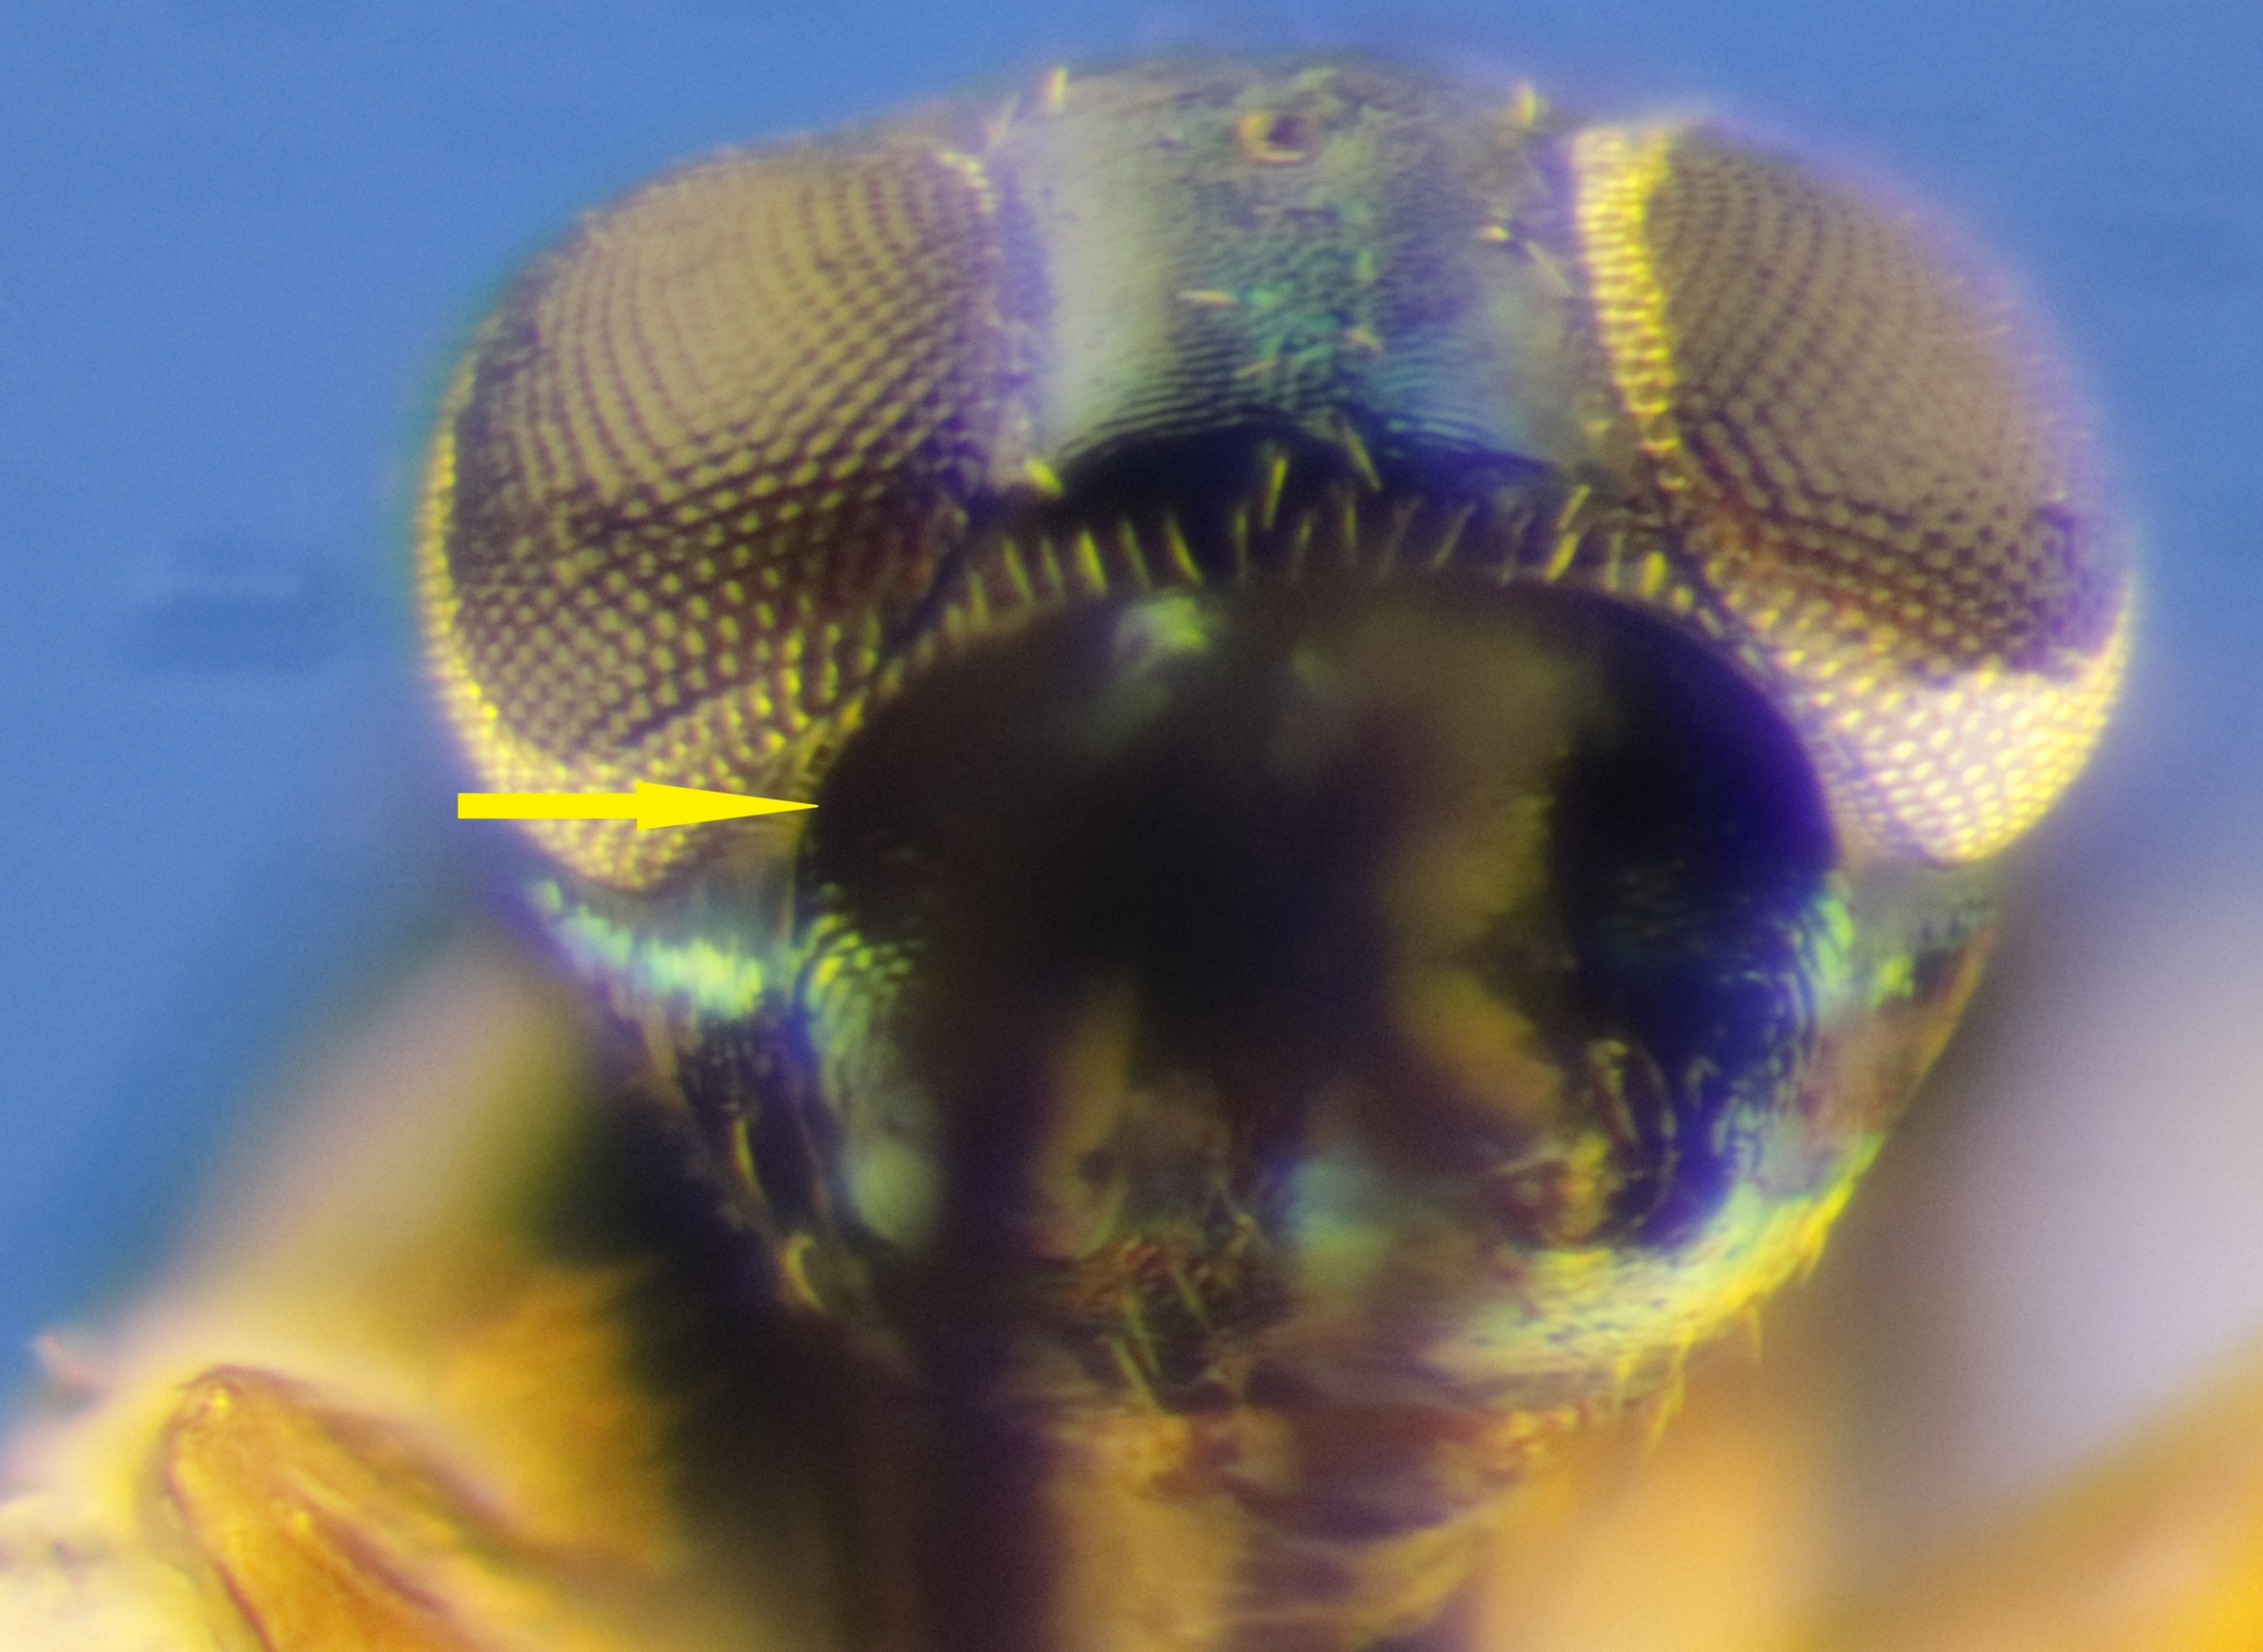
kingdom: Animalia
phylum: Arthropoda
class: Insecta
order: Hymenoptera
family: Encyrtidae
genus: Cerapterocerus
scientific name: Cerapterocerus mirabilis
